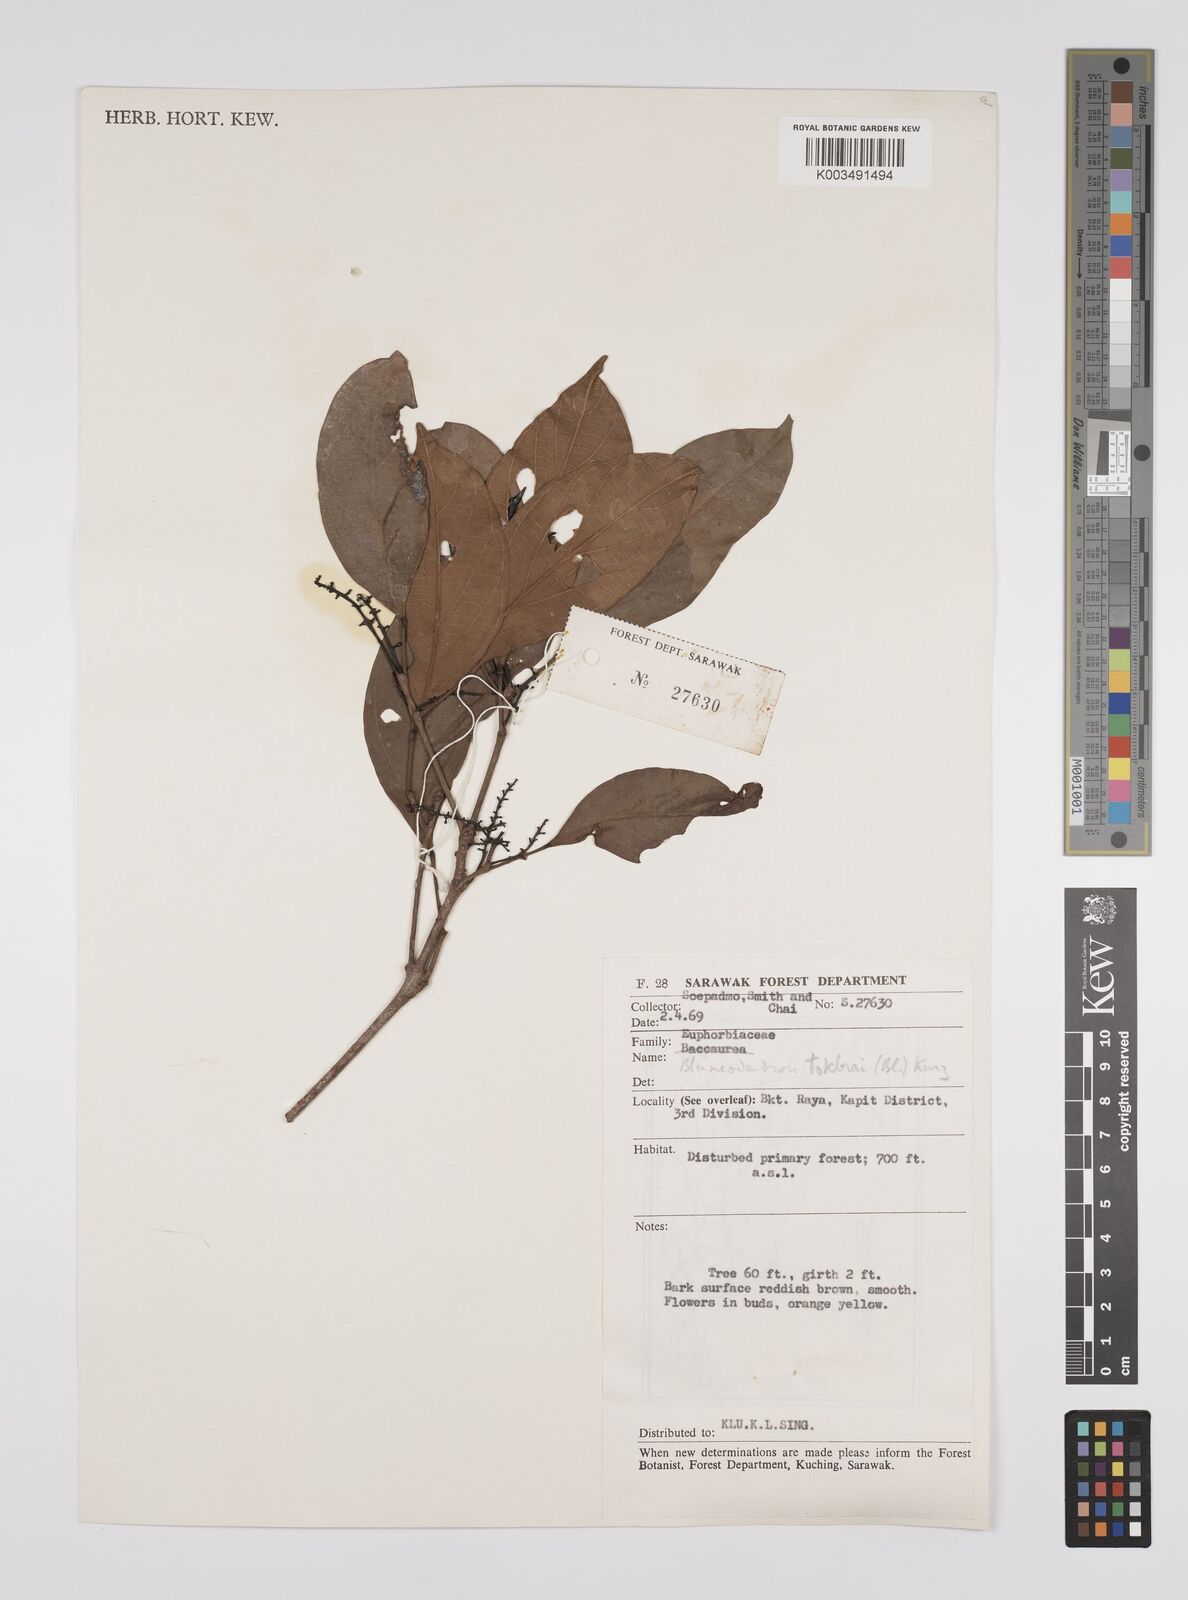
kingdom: Plantae
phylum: Tracheophyta
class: Magnoliopsida
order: Malpighiales
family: Euphorbiaceae
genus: Blumeodendron
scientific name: Blumeodendron tokbrai
